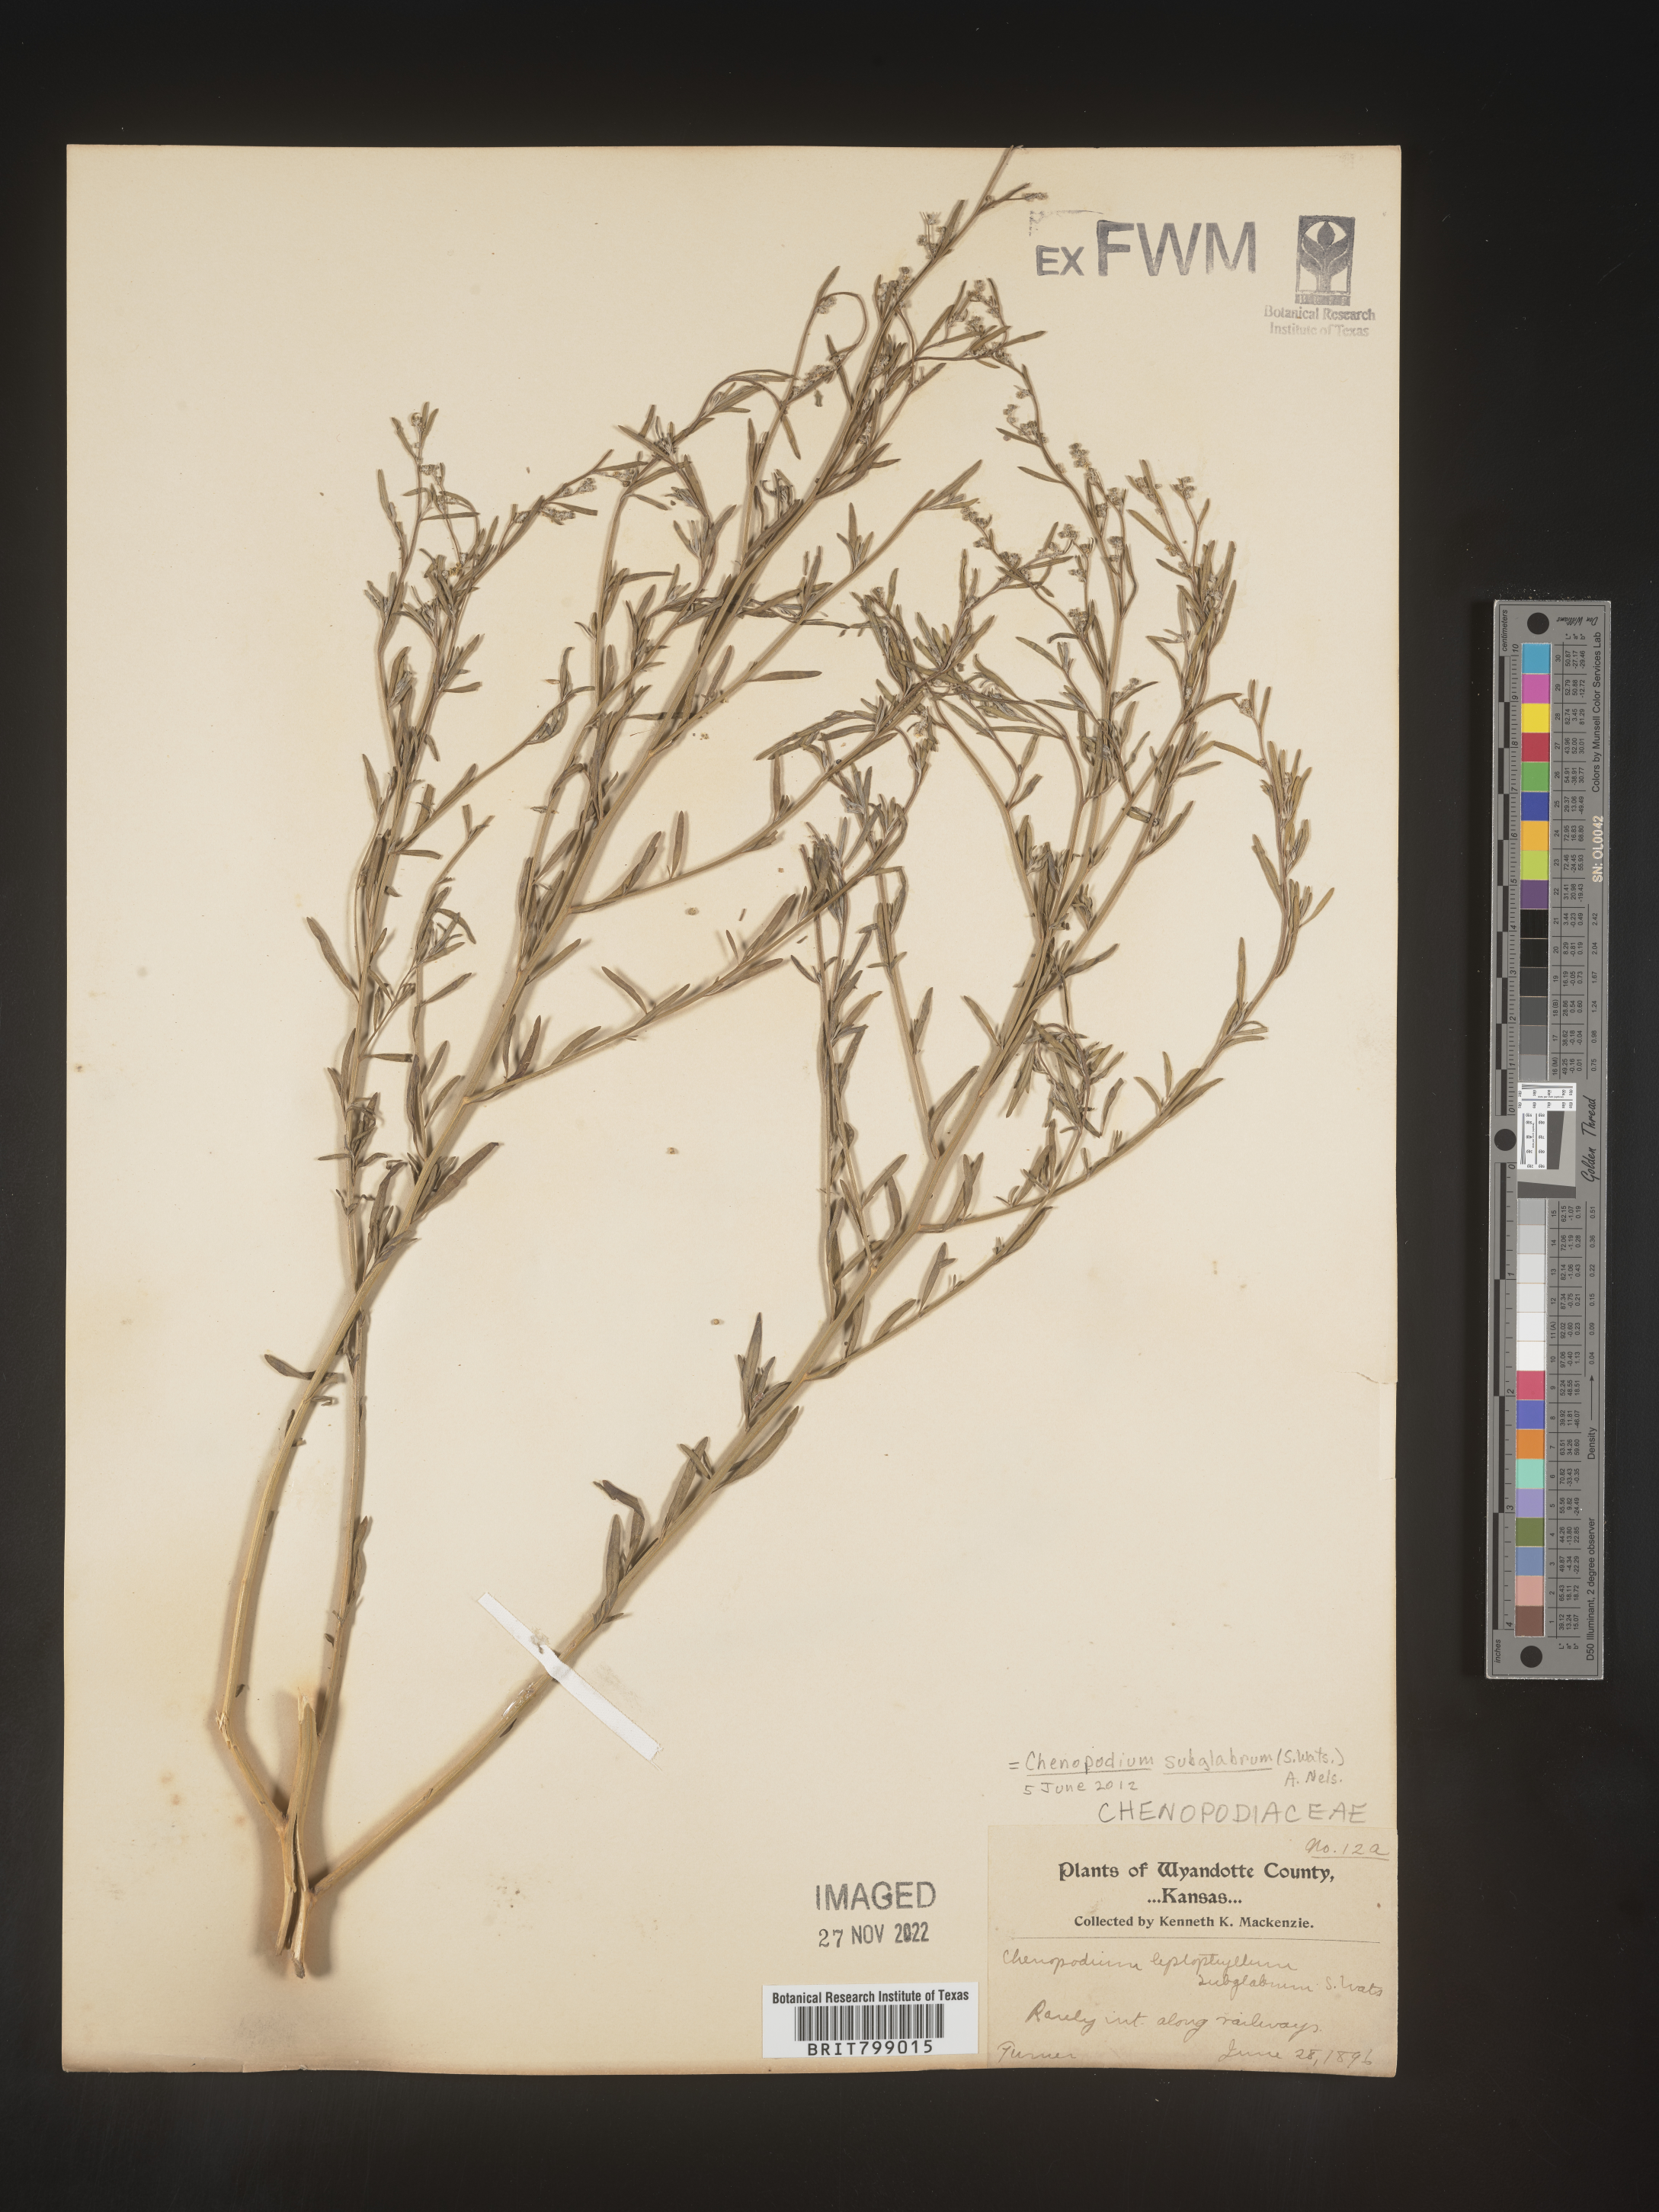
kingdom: Plantae
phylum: Tracheophyta
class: Magnoliopsida
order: Caryophyllales
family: Amaranthaceae
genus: Chenopodium
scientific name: Chenopodium subglabrum
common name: Smooth goosefoot
